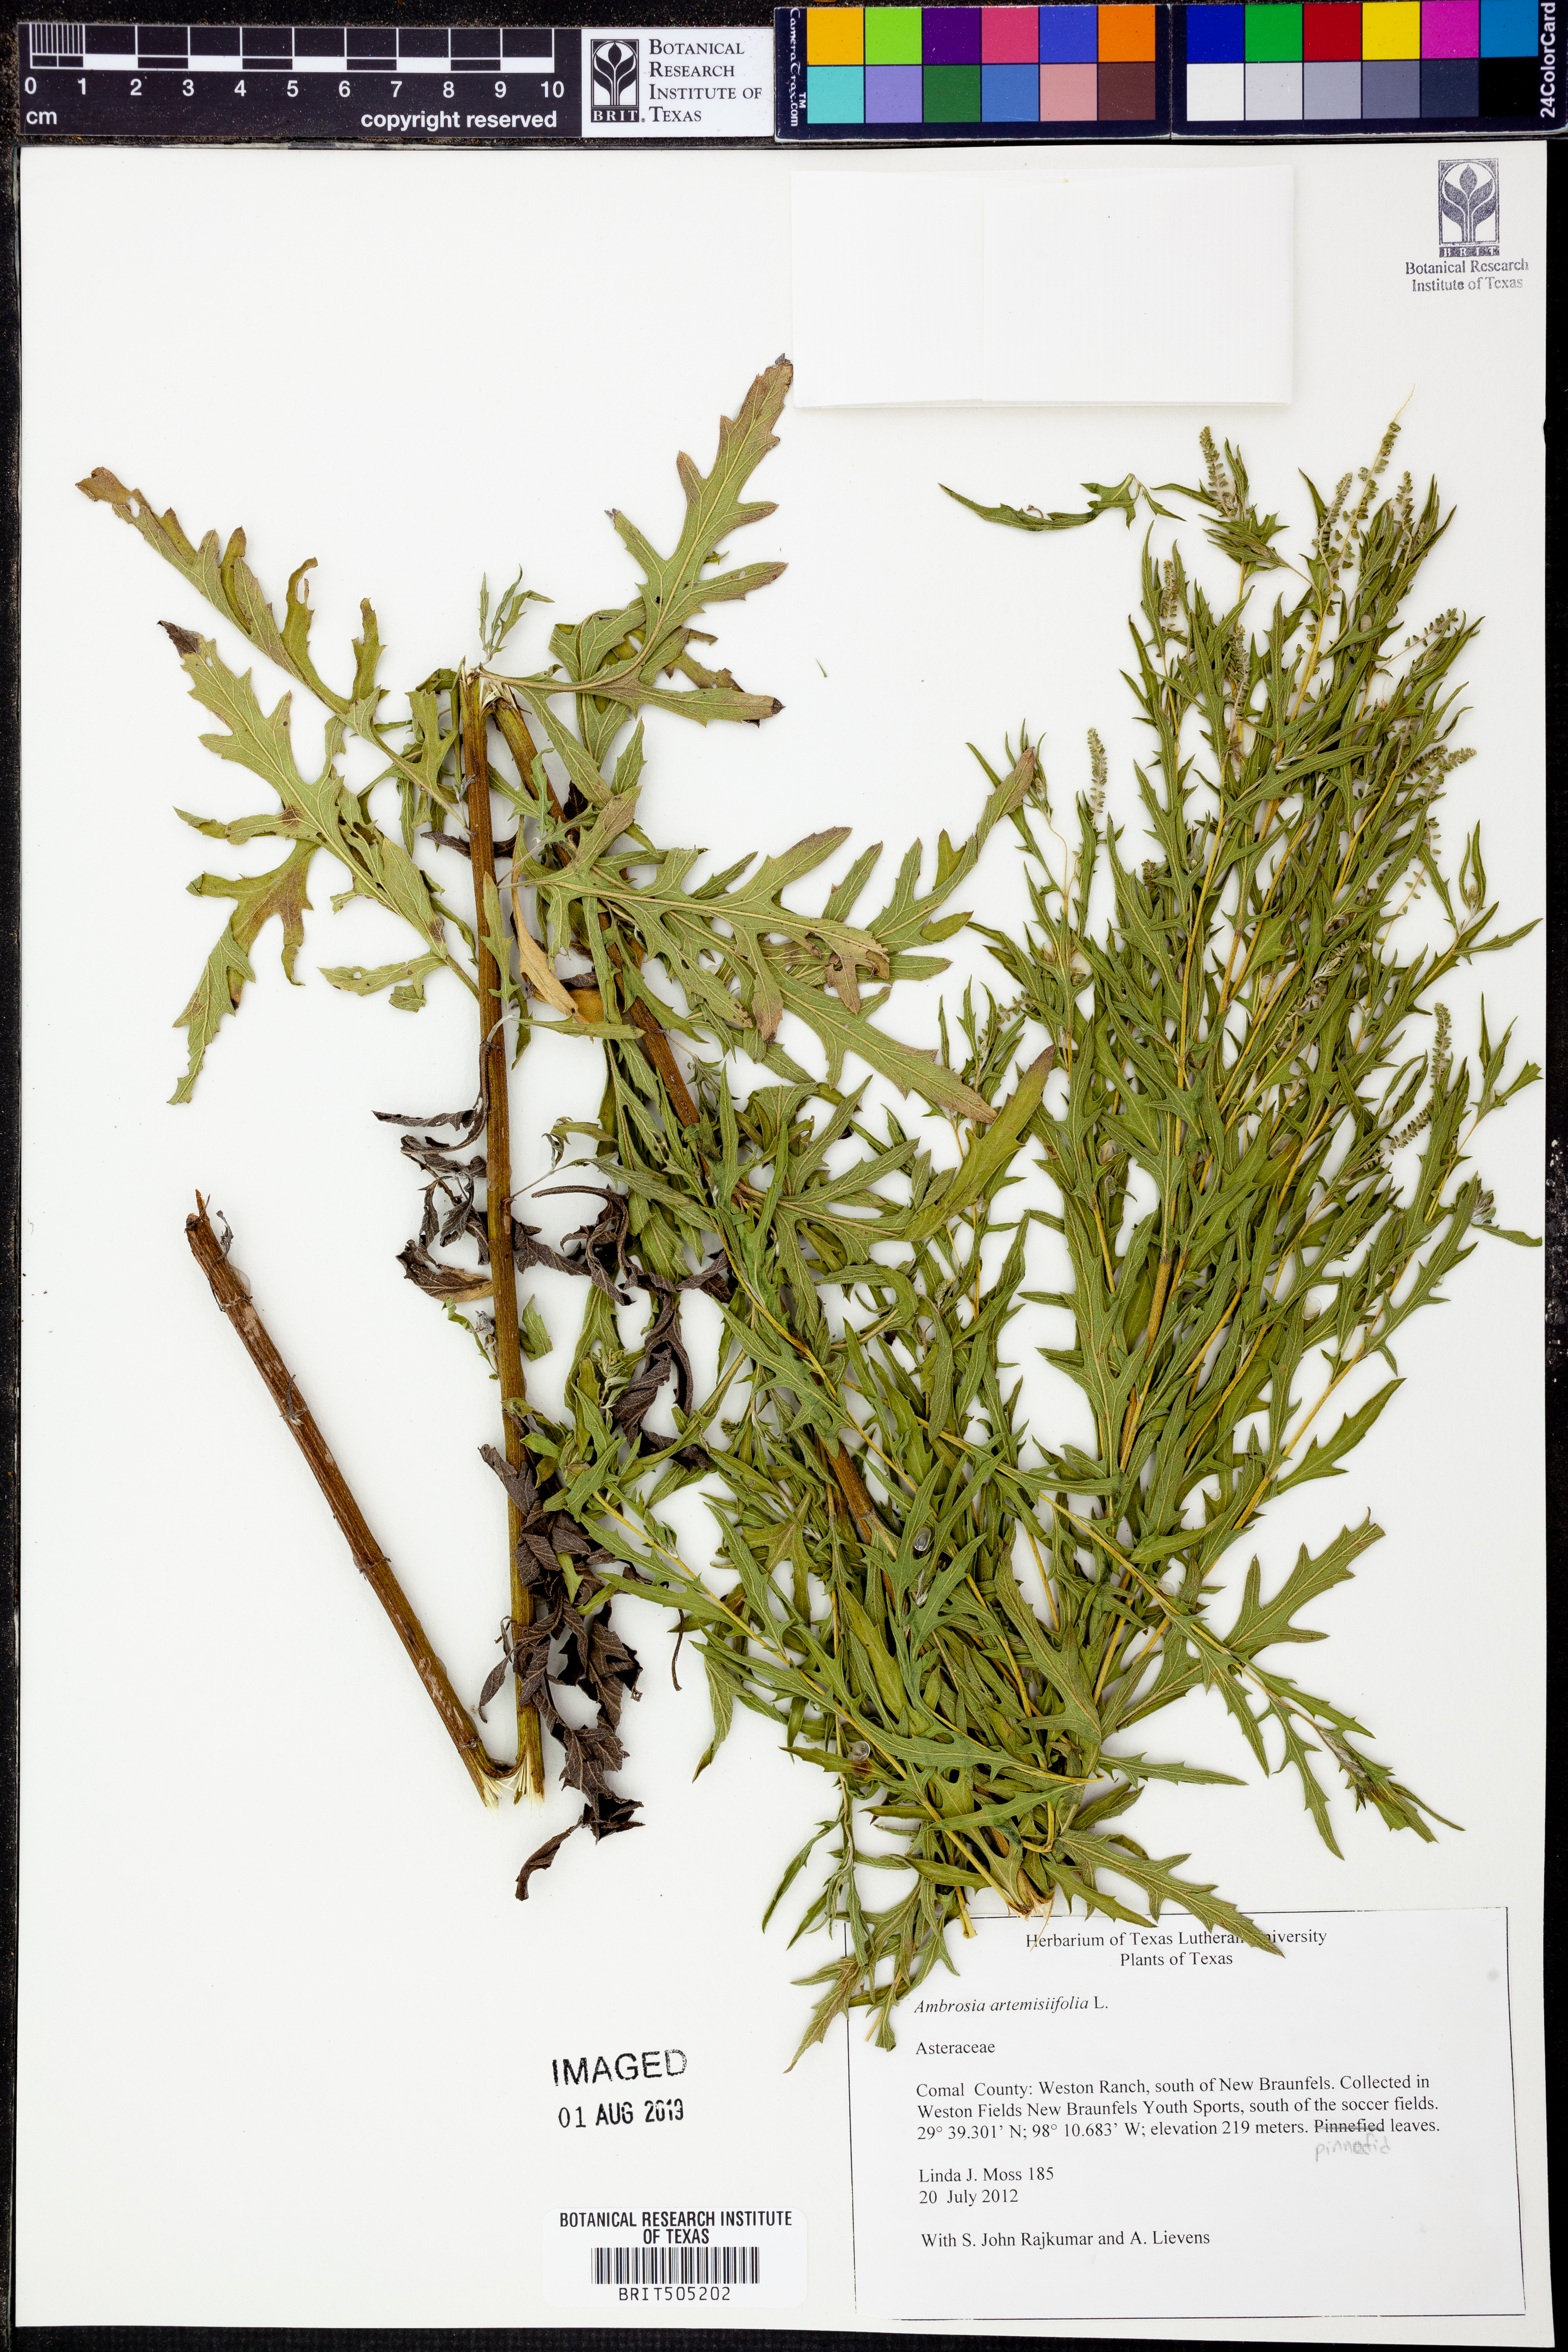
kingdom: Plantae
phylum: Tracheophyta
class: Magnoliopsida
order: Asterales
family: Asteraceae
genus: Ambrosia
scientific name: Ambrosia artemisiifolia
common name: Annual ragweed
